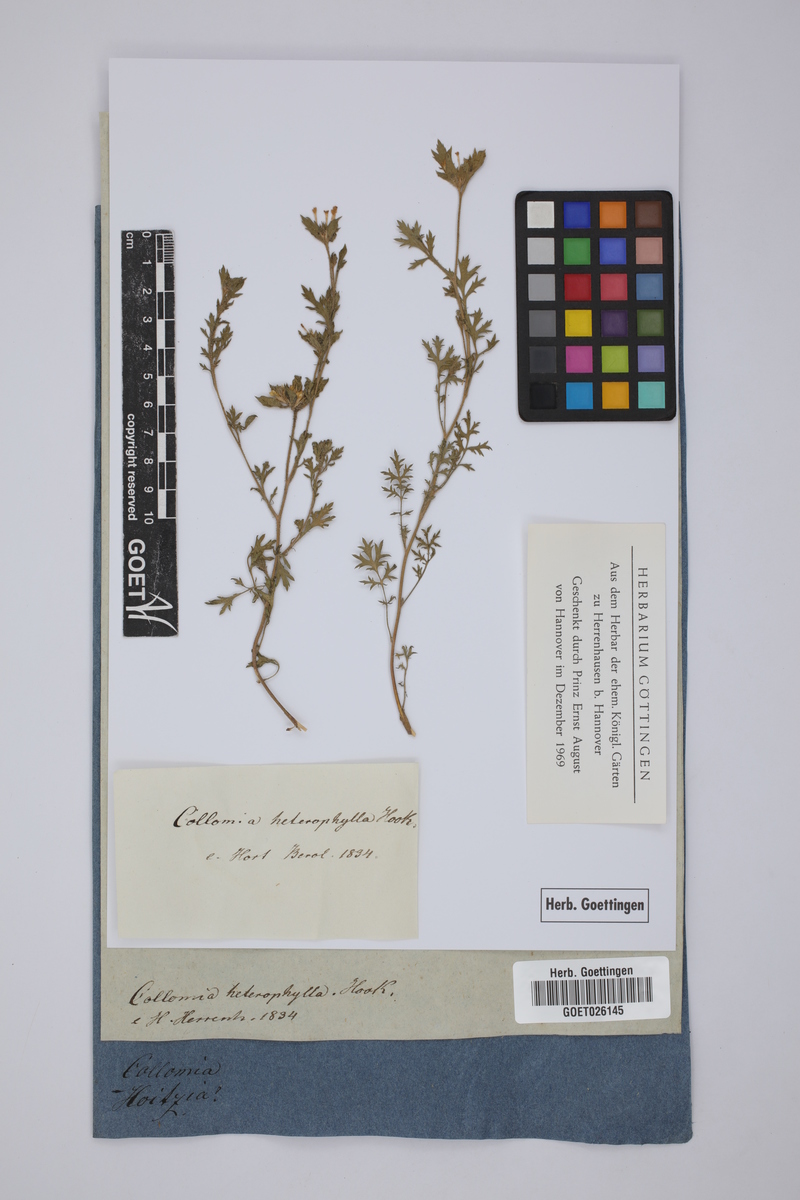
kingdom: Plantae
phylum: Tracheophyta
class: Magnoliopsida
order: Ericales
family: Polemoniaceae
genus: Collomia
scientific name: Collomia heterophylla
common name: Variable-leaved collomia
